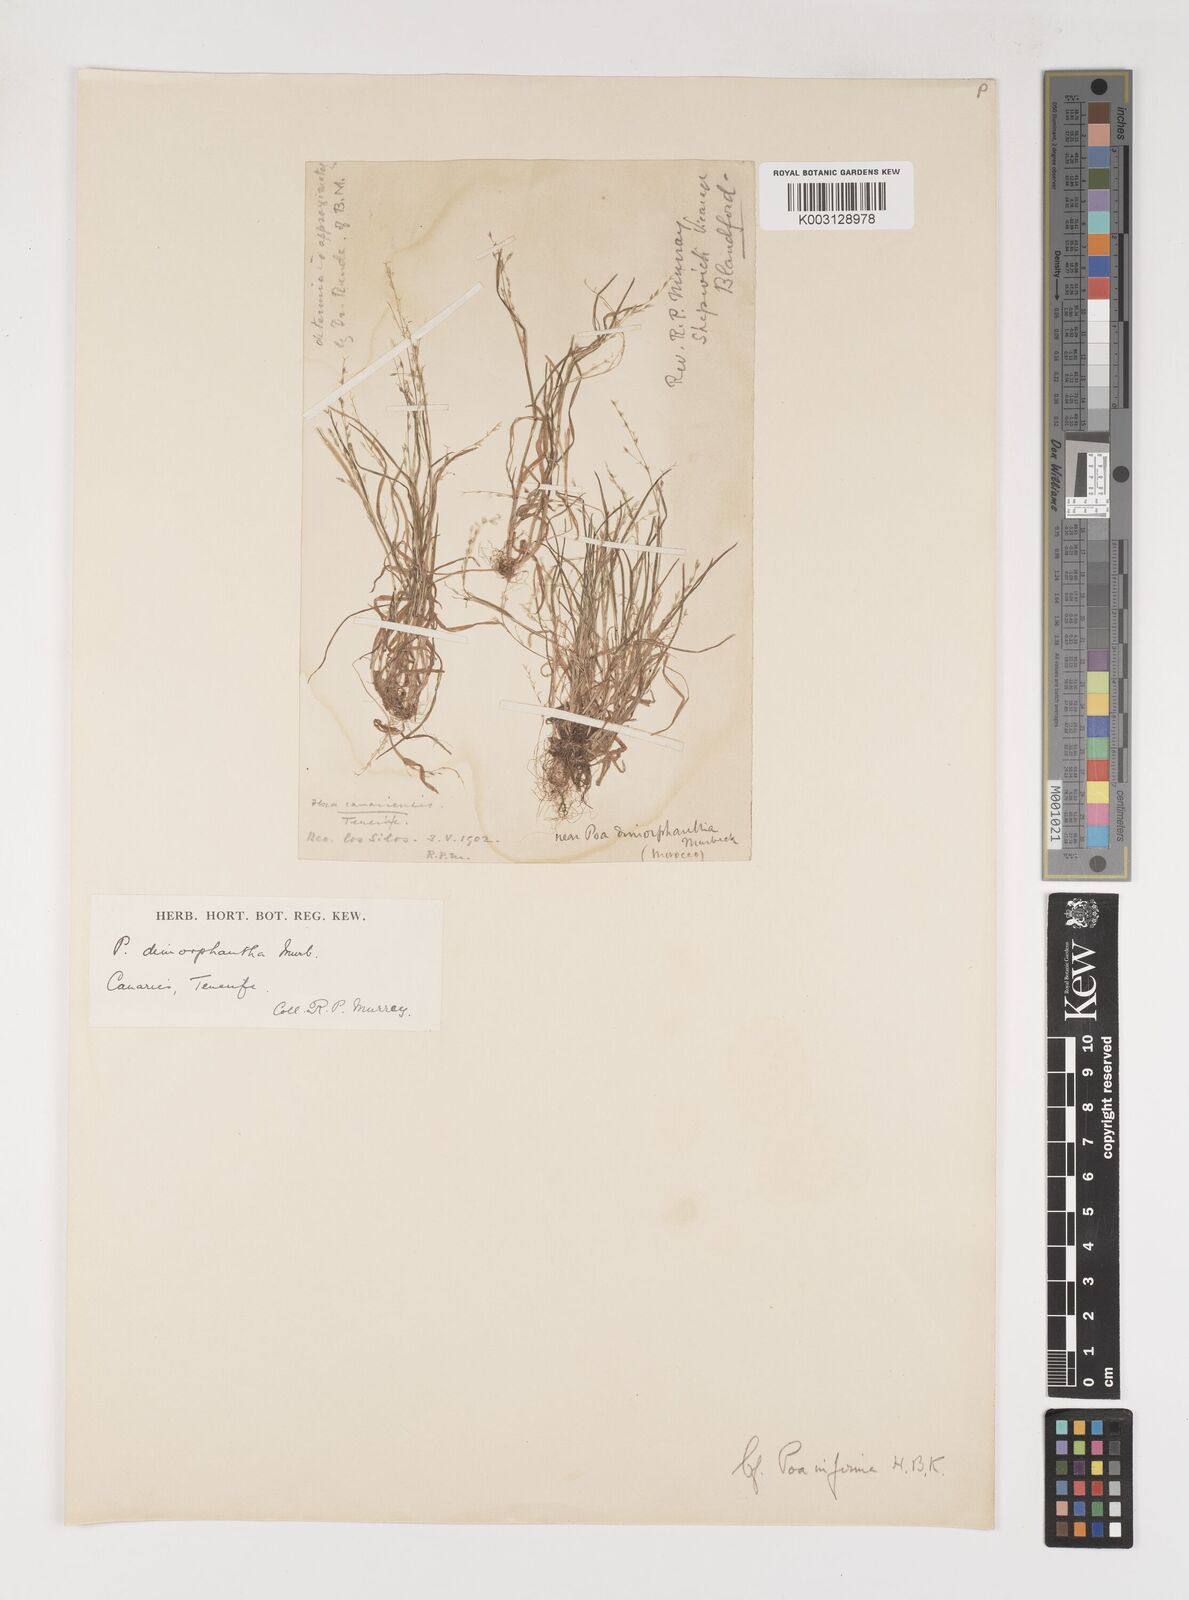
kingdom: Plantae
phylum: Tracheophyta
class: Liliopsida
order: Poales
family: Poaceae
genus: Poa
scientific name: Poa infirma
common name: Weak bluegrass
